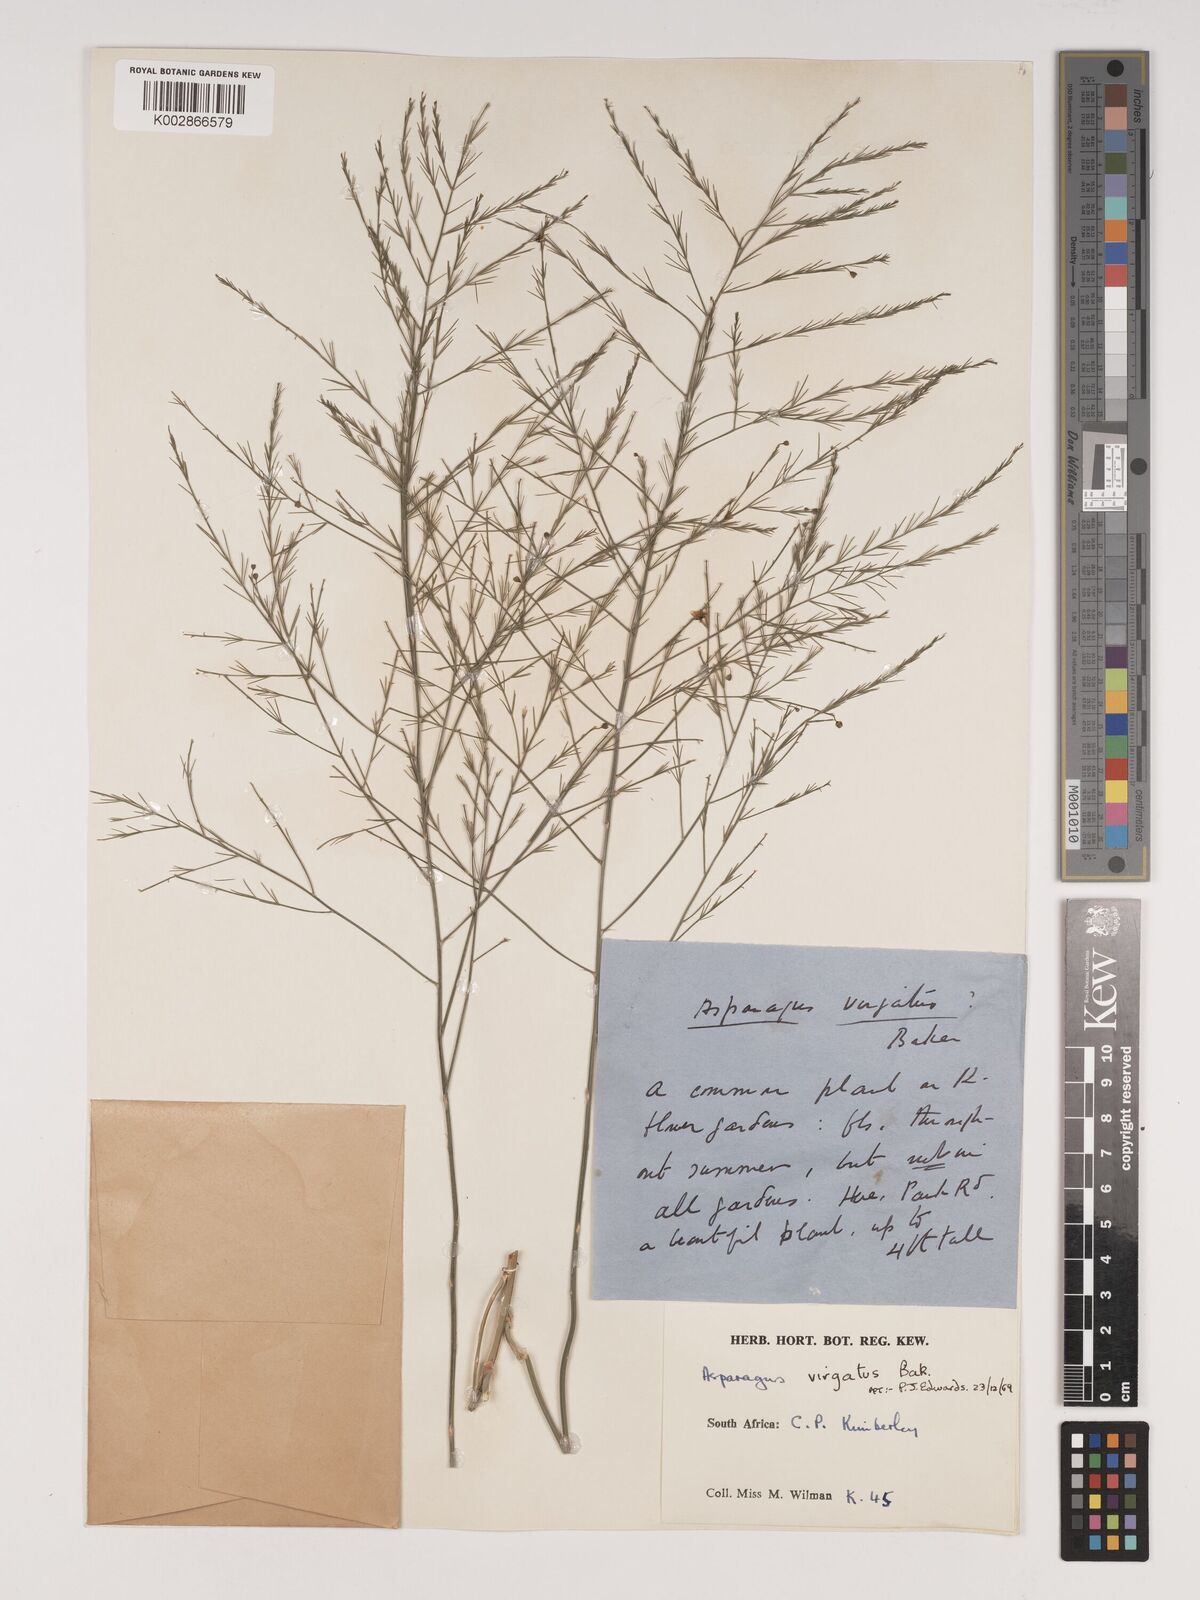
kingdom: Plantae
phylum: Tracheophyta
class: Liliopsida
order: Asparagales
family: Asparagaceae
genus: Asparagus
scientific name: Asparagus virgatus
